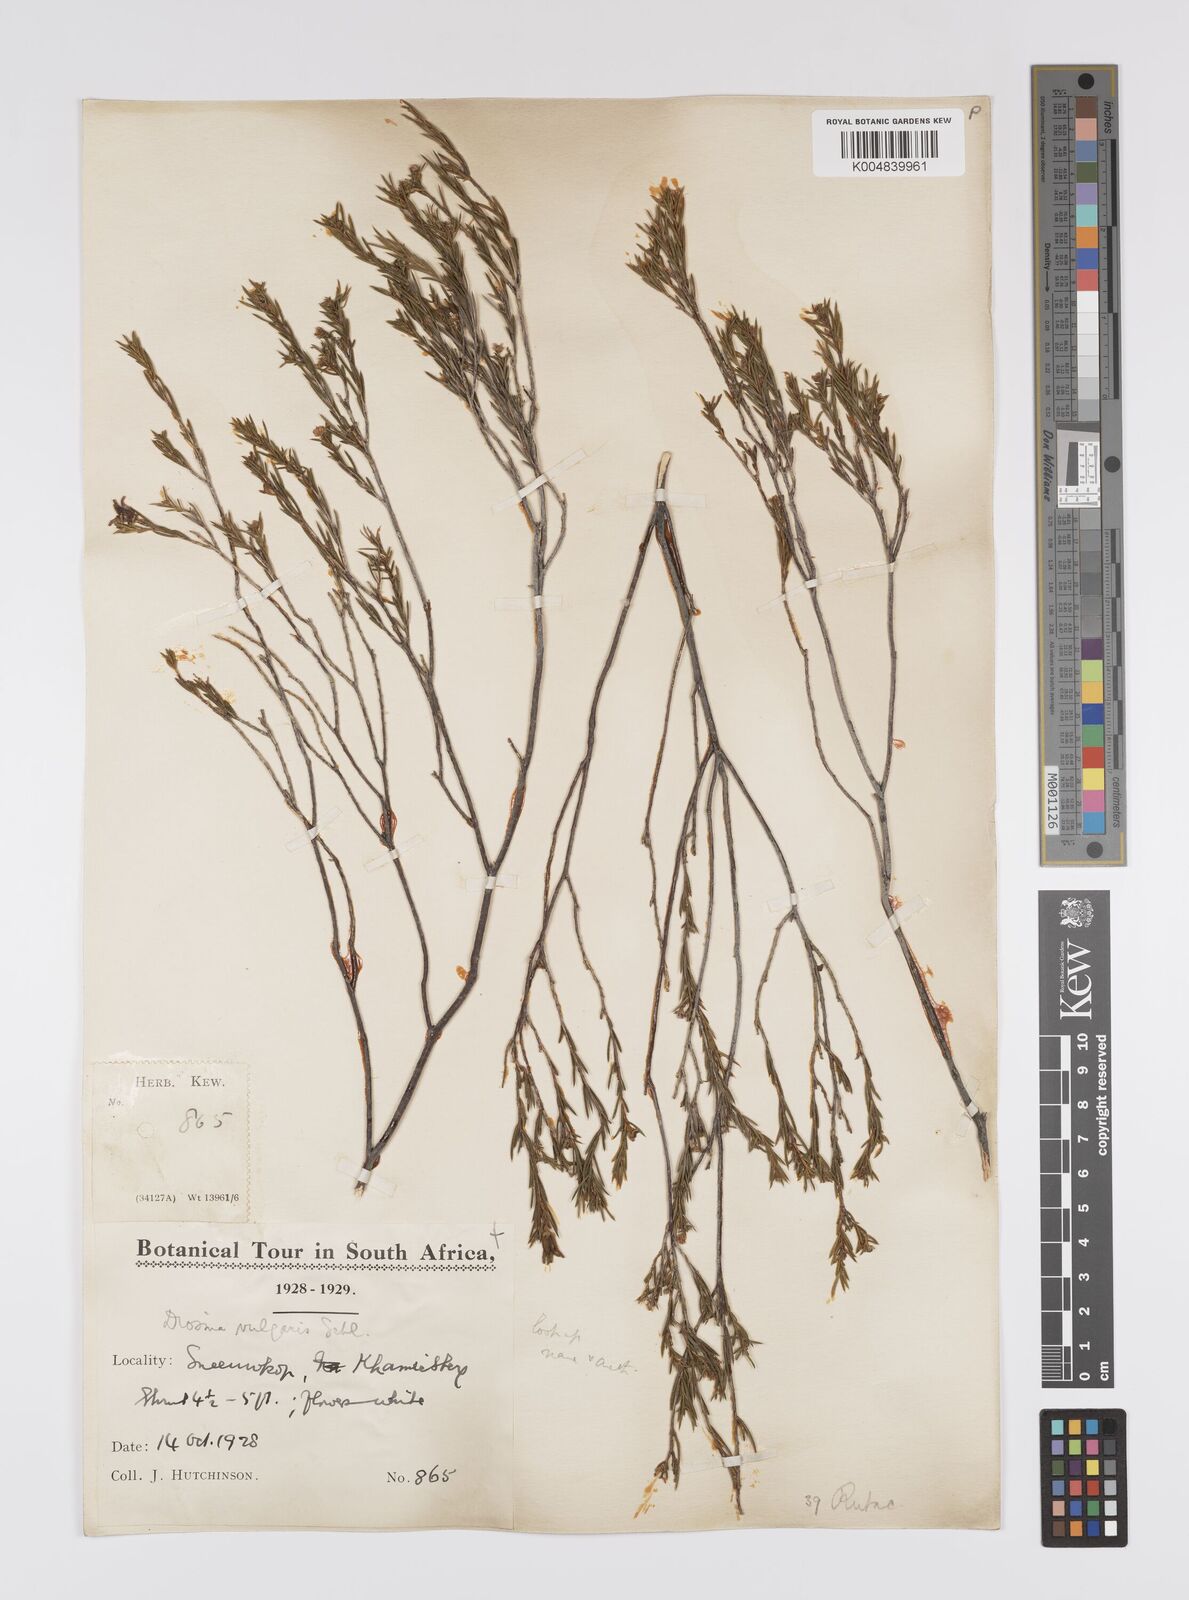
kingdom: Plantae
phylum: Tracheophyta
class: Magnoliopsida
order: Sapindales
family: Rutaceae
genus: Diosma
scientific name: Diosma acmaeophylla
